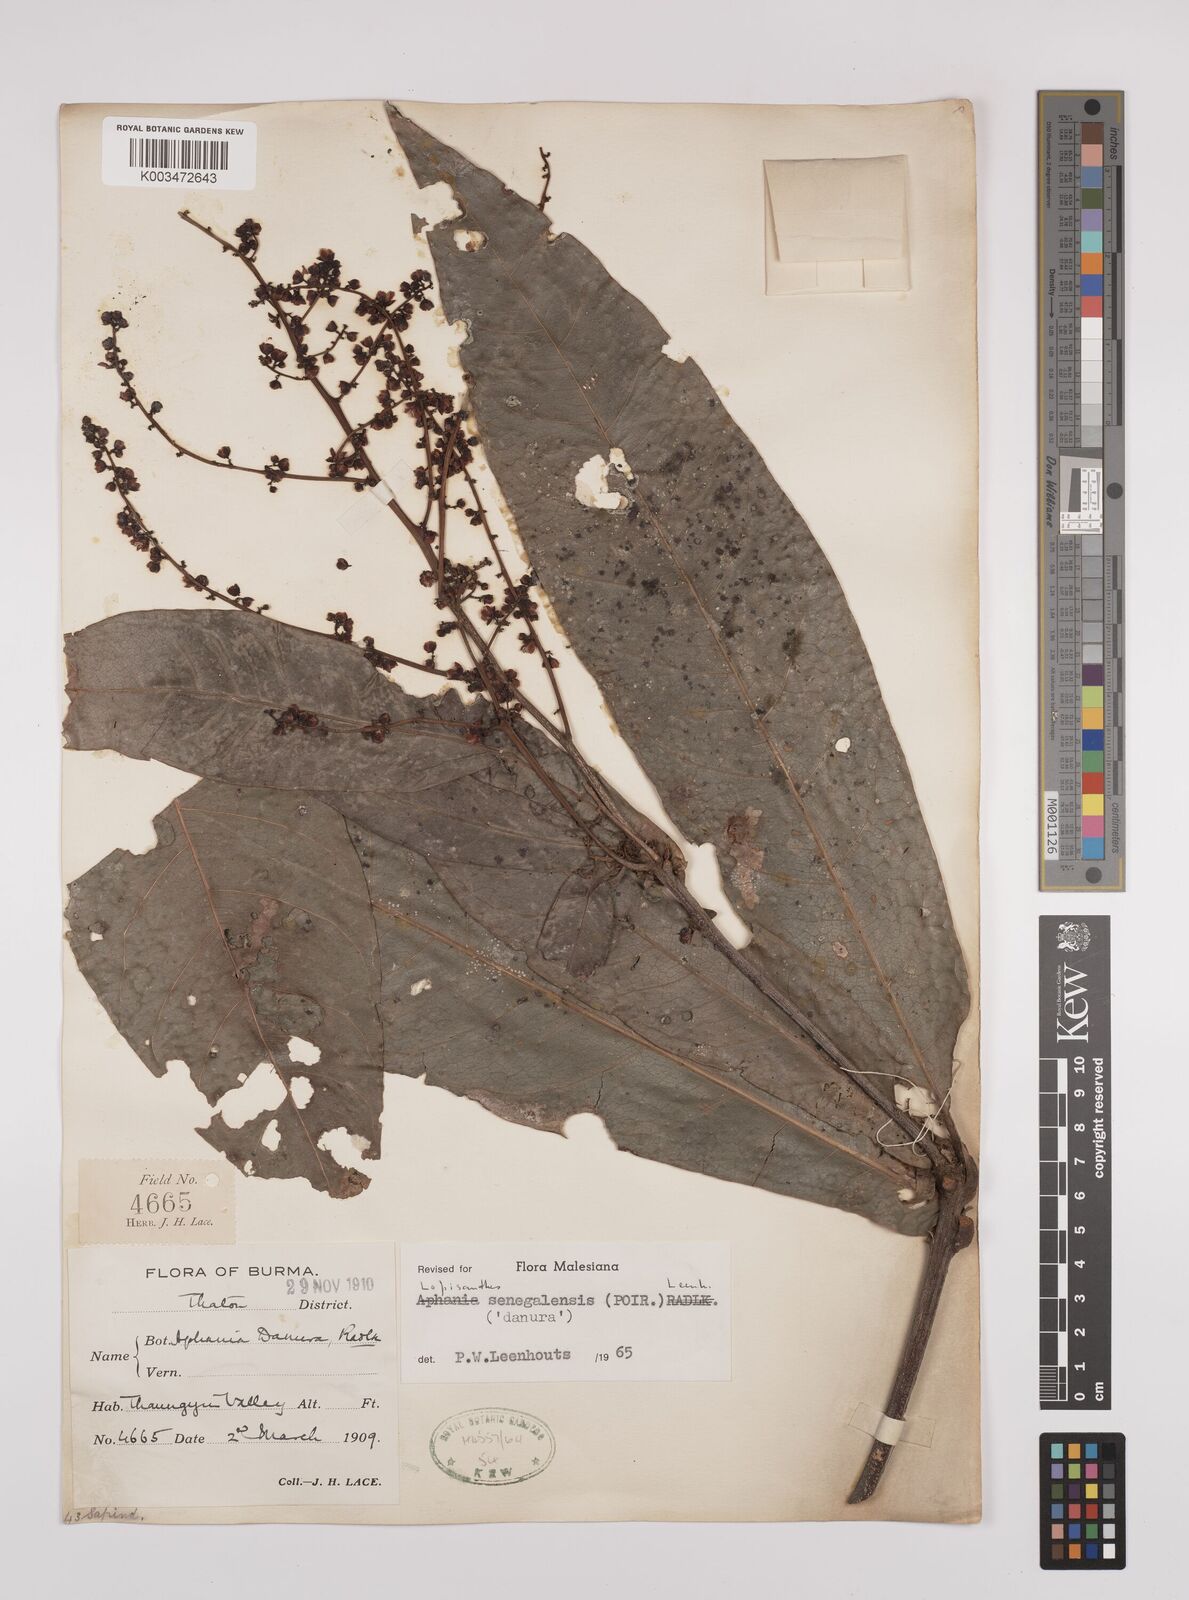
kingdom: Plantae
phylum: Tracheophyta
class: Magnoliopsida
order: Sapindales
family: Sapindaceae
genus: Lepisanthes
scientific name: Lepisanthes senegalensis
